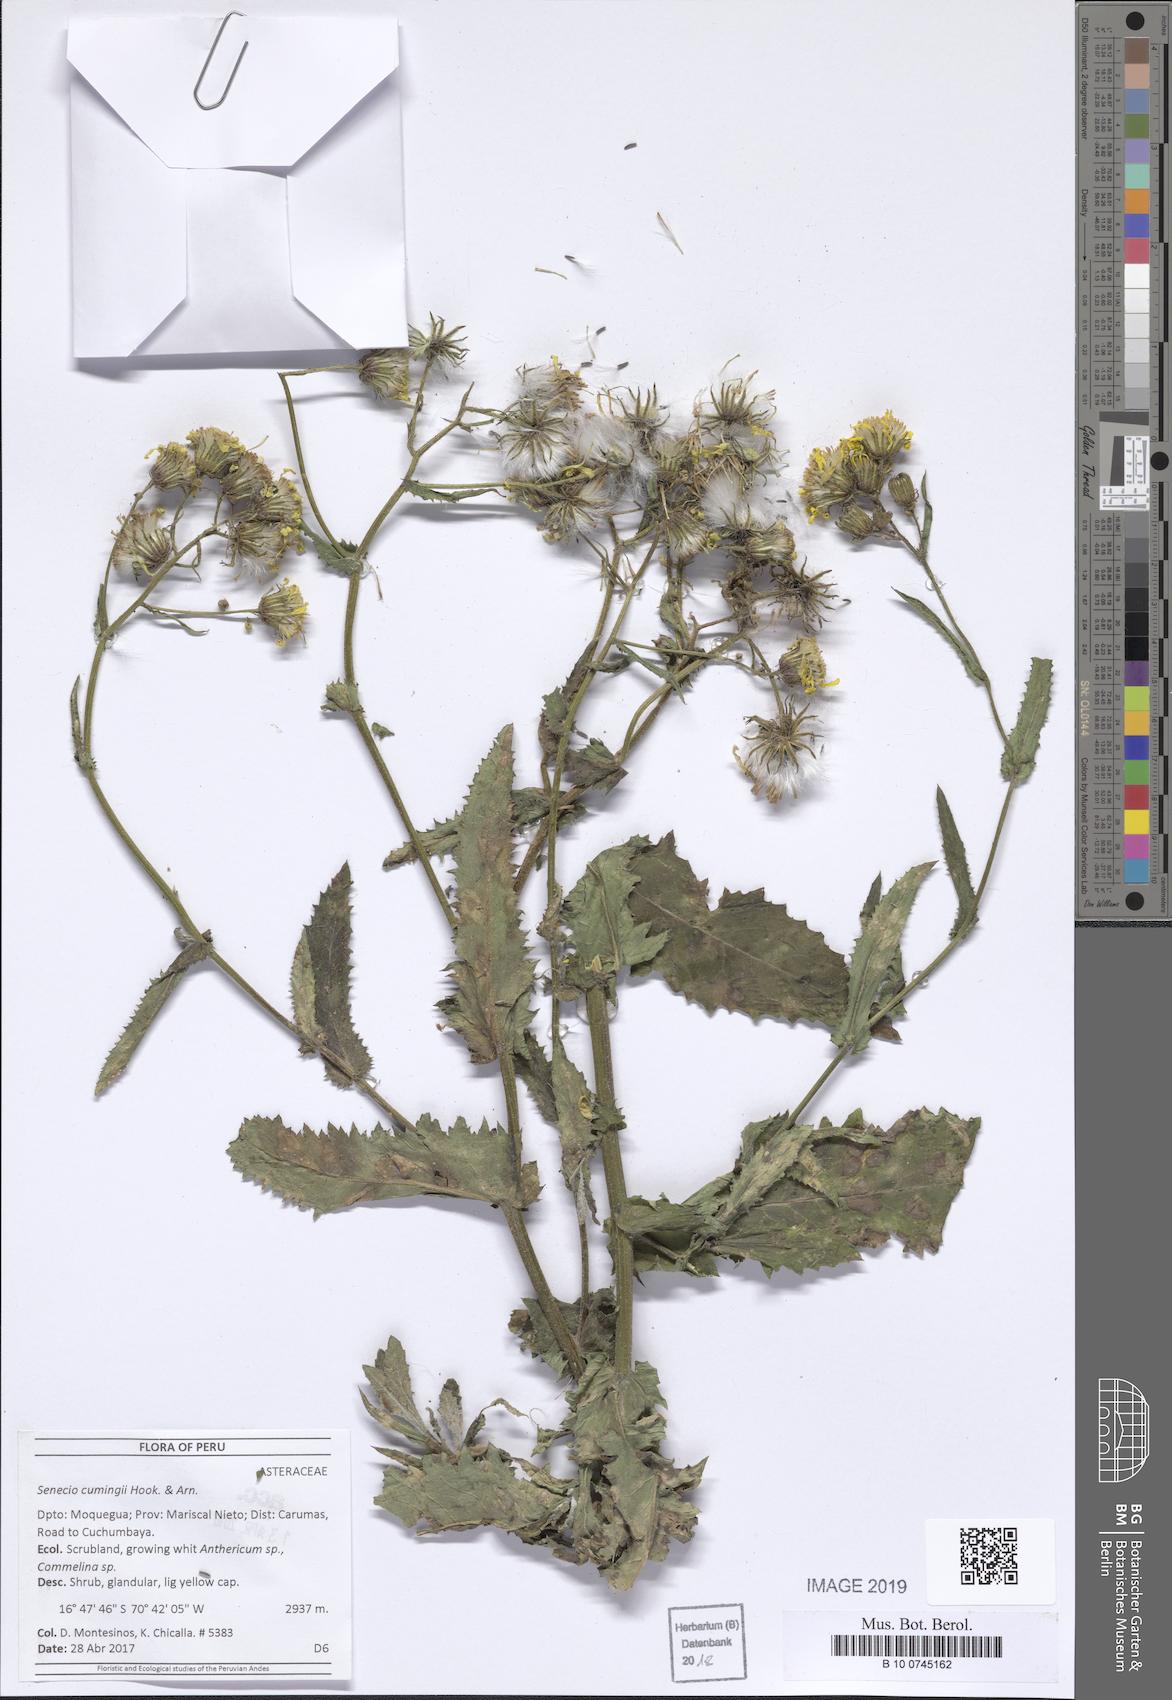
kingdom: Plantae
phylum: Tracheophyta
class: Magnoliopsida
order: Asterales
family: Asteraceae
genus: Senecio
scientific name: Senecio cumingii
